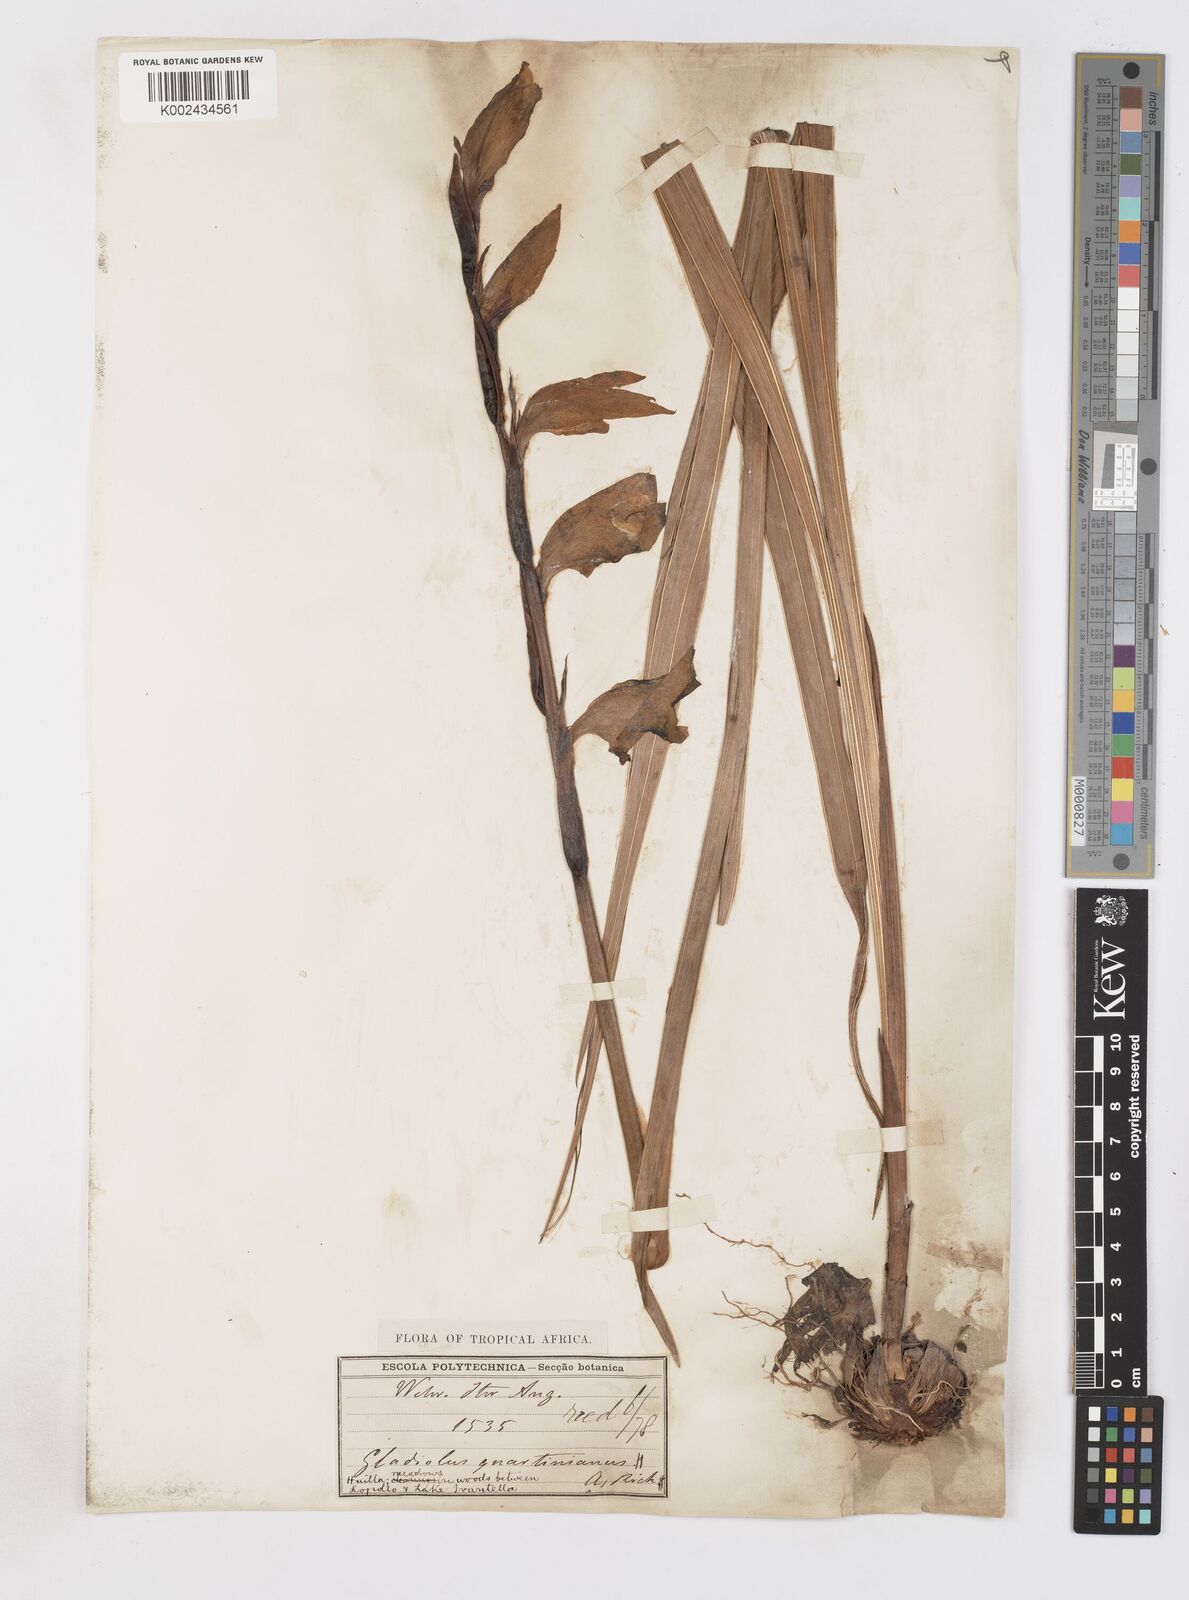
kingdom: Plantae
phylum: Tracheophyta
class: Liliopsida
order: Asparagales
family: Iridaceae
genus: Gladiolus
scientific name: Gladiolus dalenii
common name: Cornflag
